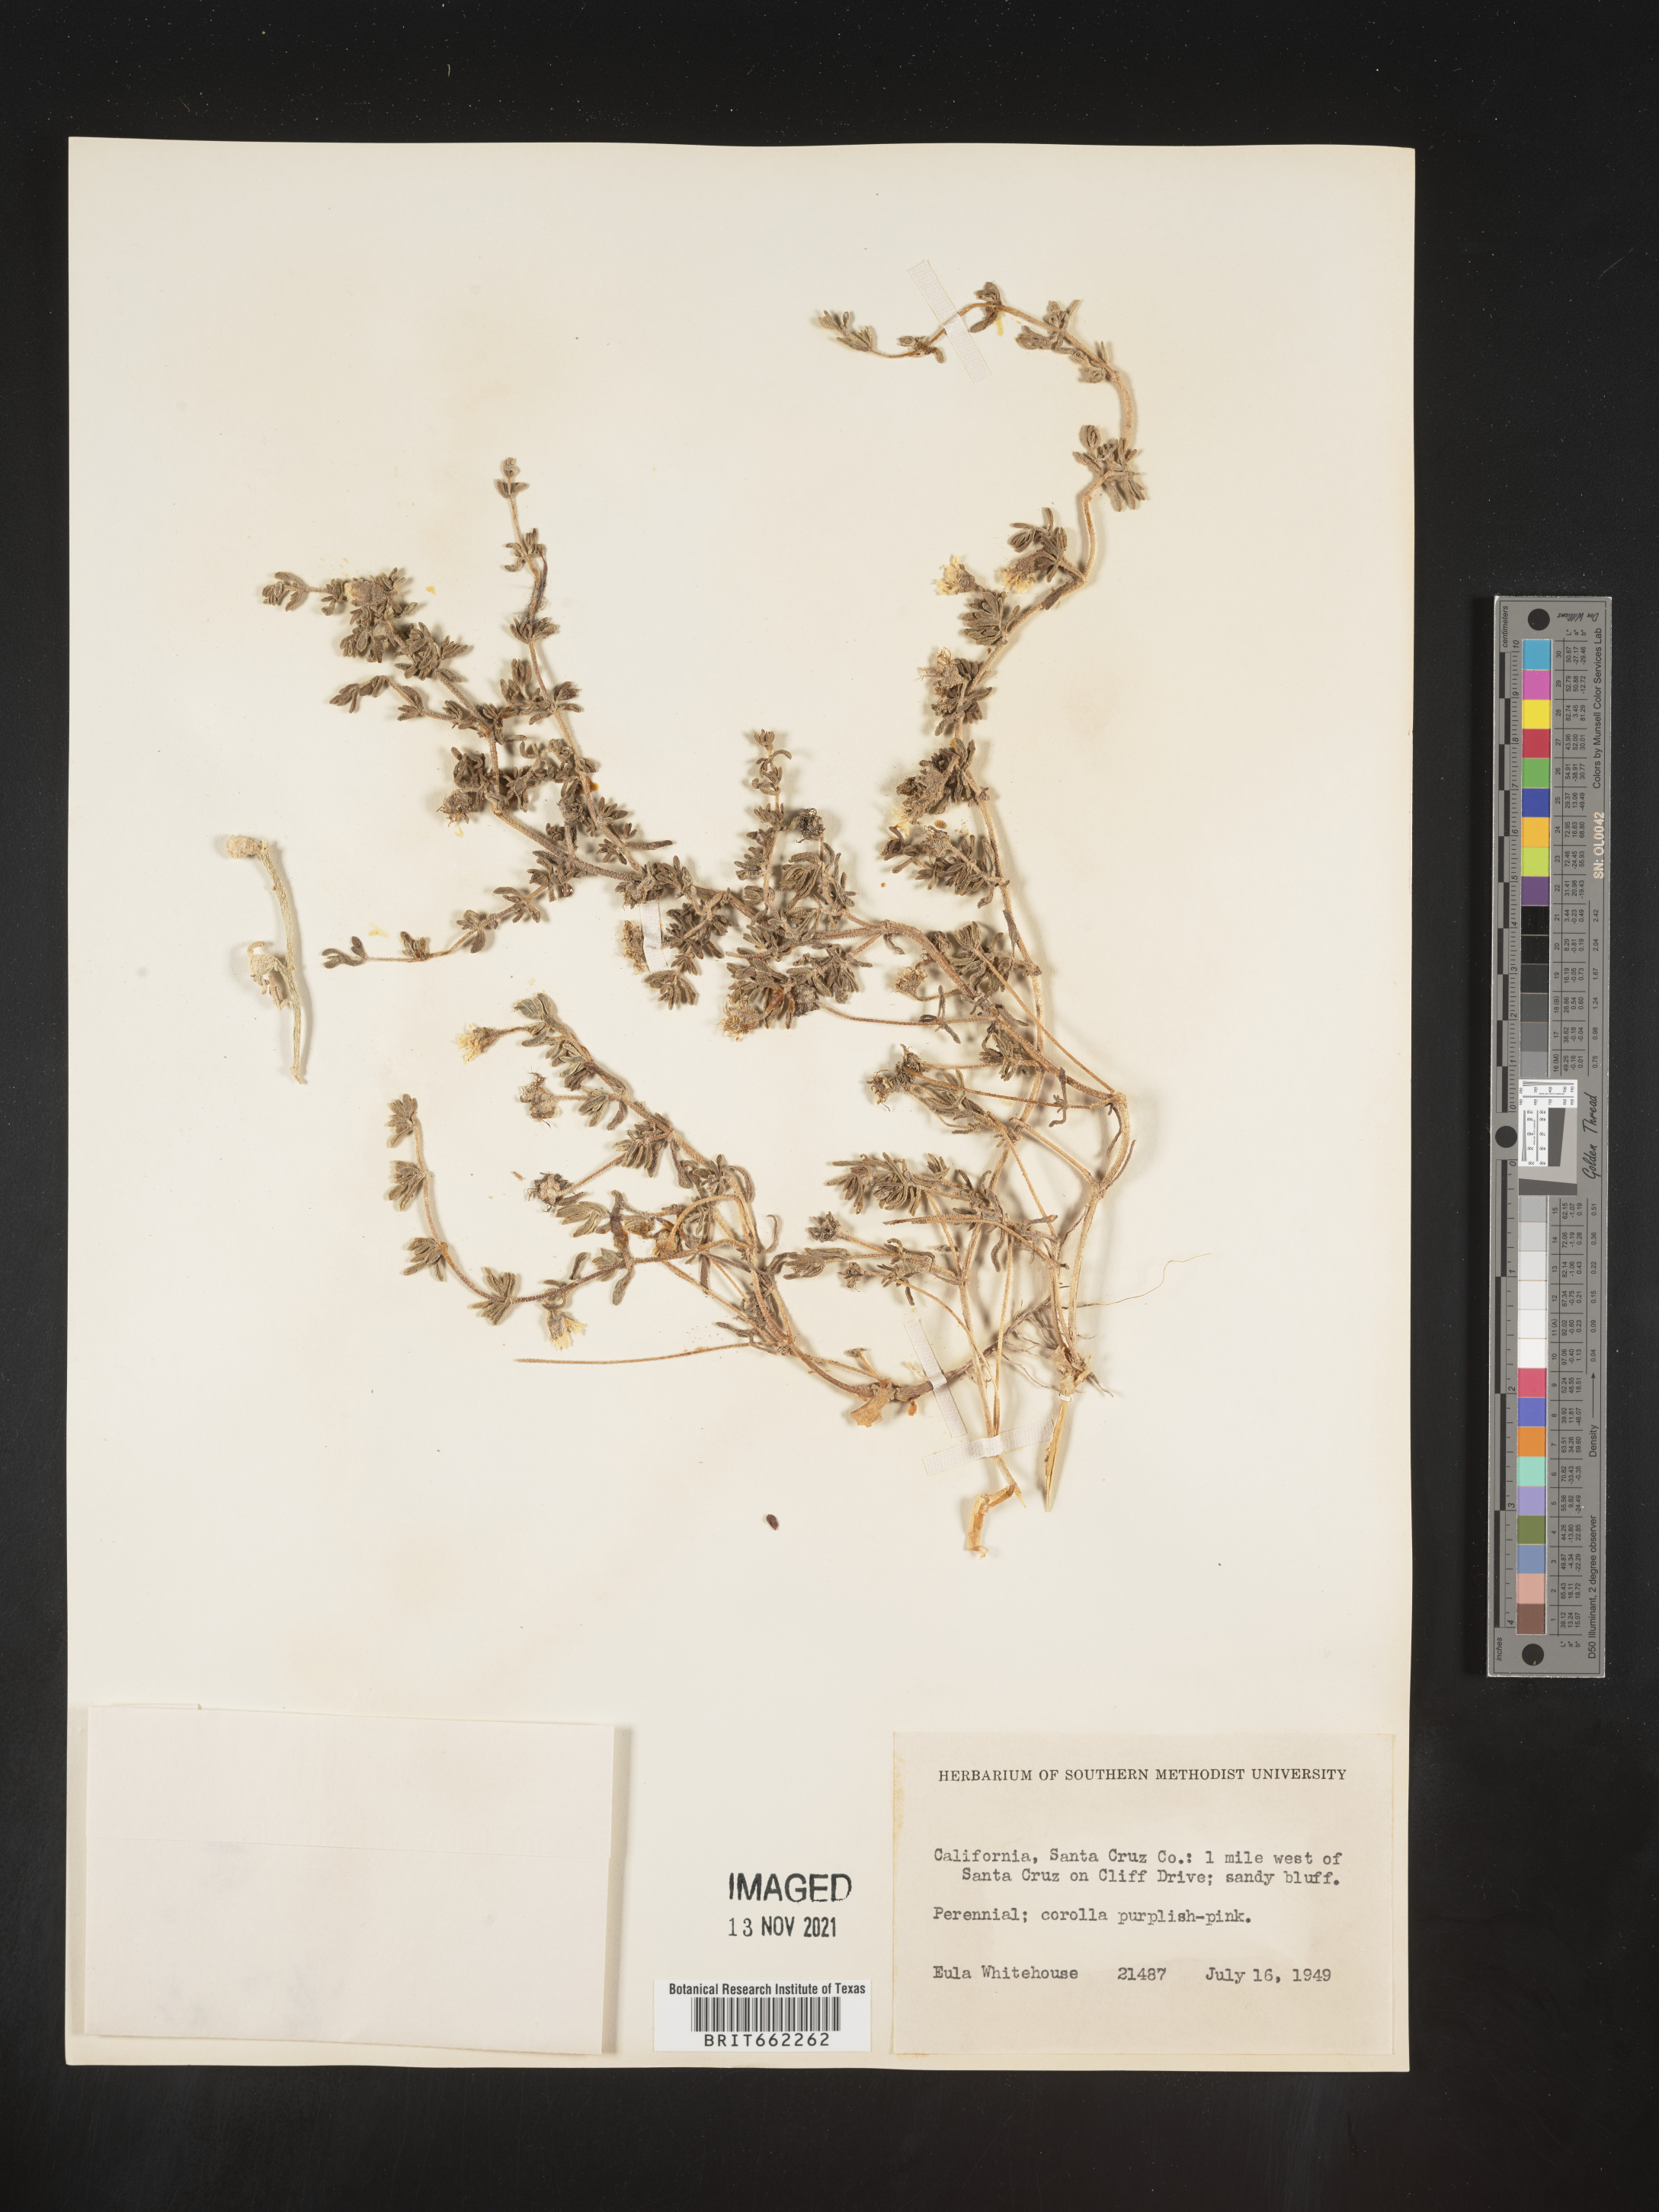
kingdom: Plantae
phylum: Tracheophyta
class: Magnoliopsida
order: Caryophyllales
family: Aizoaceae
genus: Mesembryanthemum
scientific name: Mesembryanthemum
